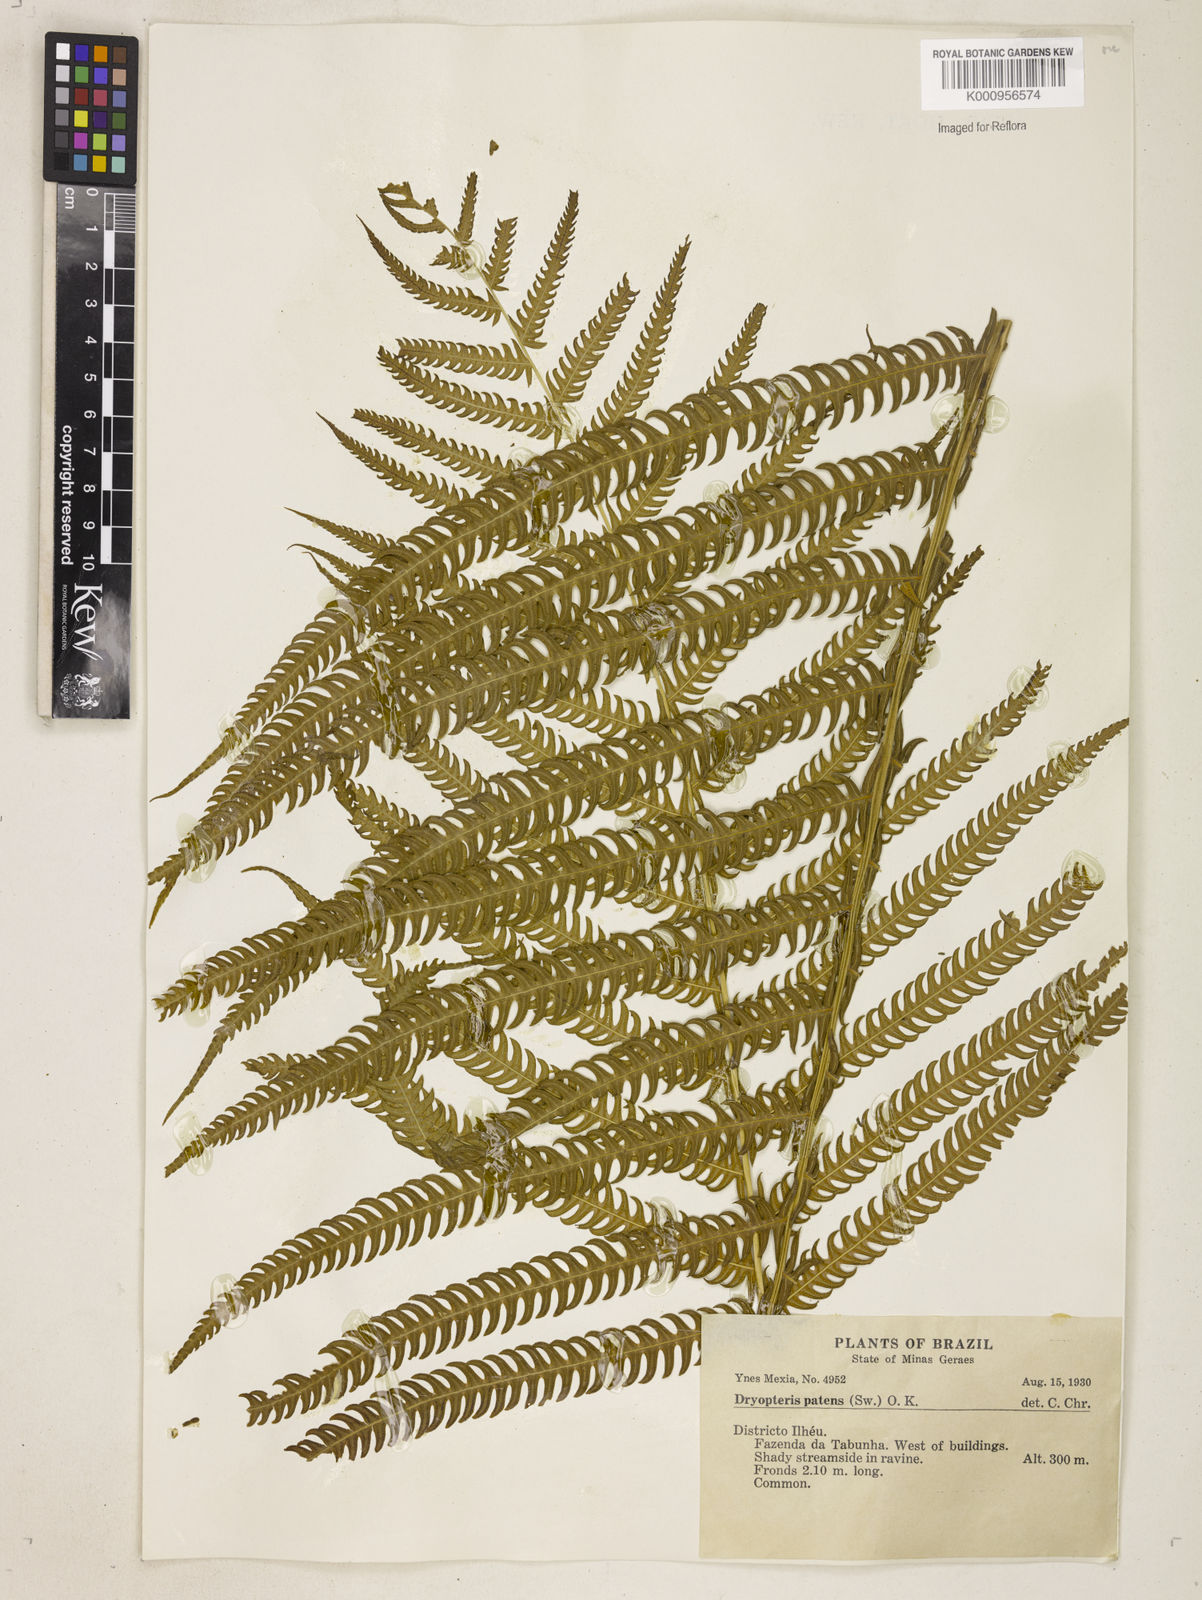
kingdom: Plantae
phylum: Tracheophyta
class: Polypodiopsida
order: Polypodiales
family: Thelypteridaceae
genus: Pelazoneuron
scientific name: Pelazoneuron patens
